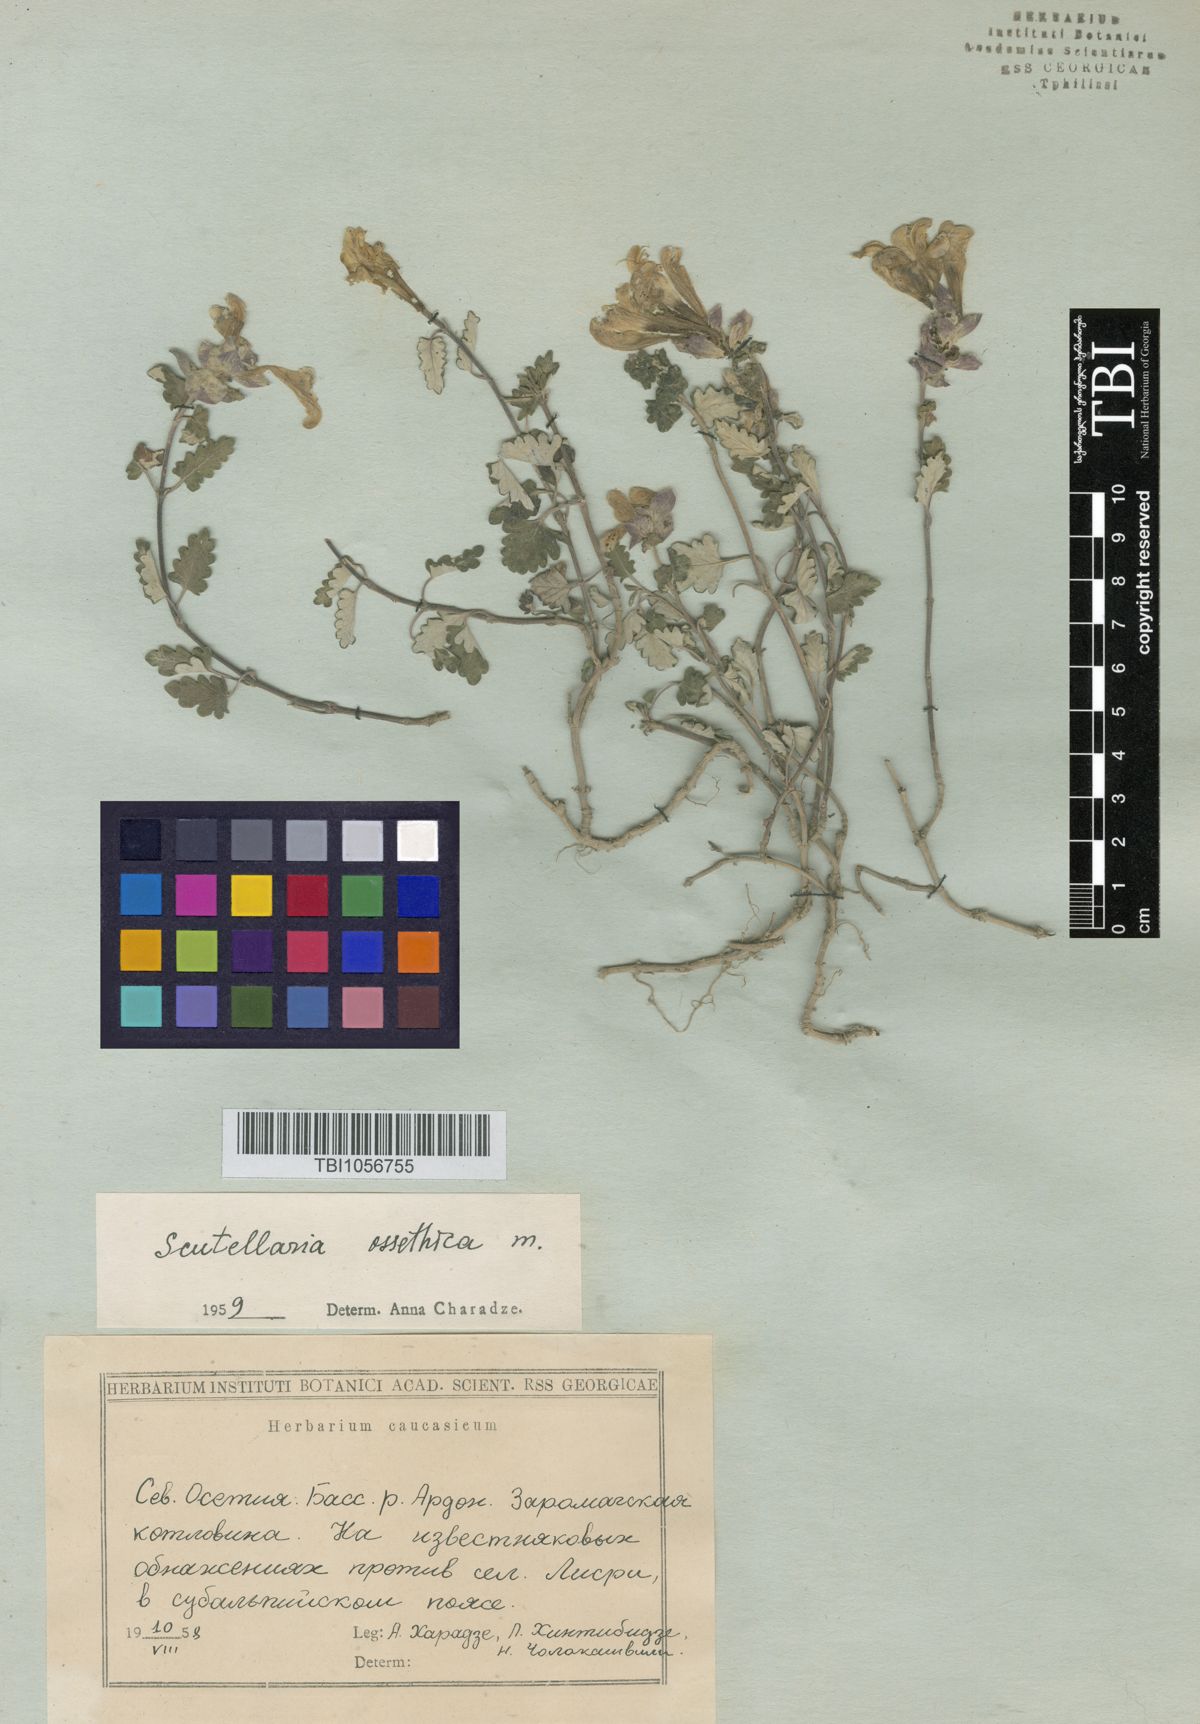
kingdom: Plantae
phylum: Tracheophyta
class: Magnoliopsida
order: Lamiales
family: Lamiaceae
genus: Scutellaria
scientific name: Scutellaria ossethica
